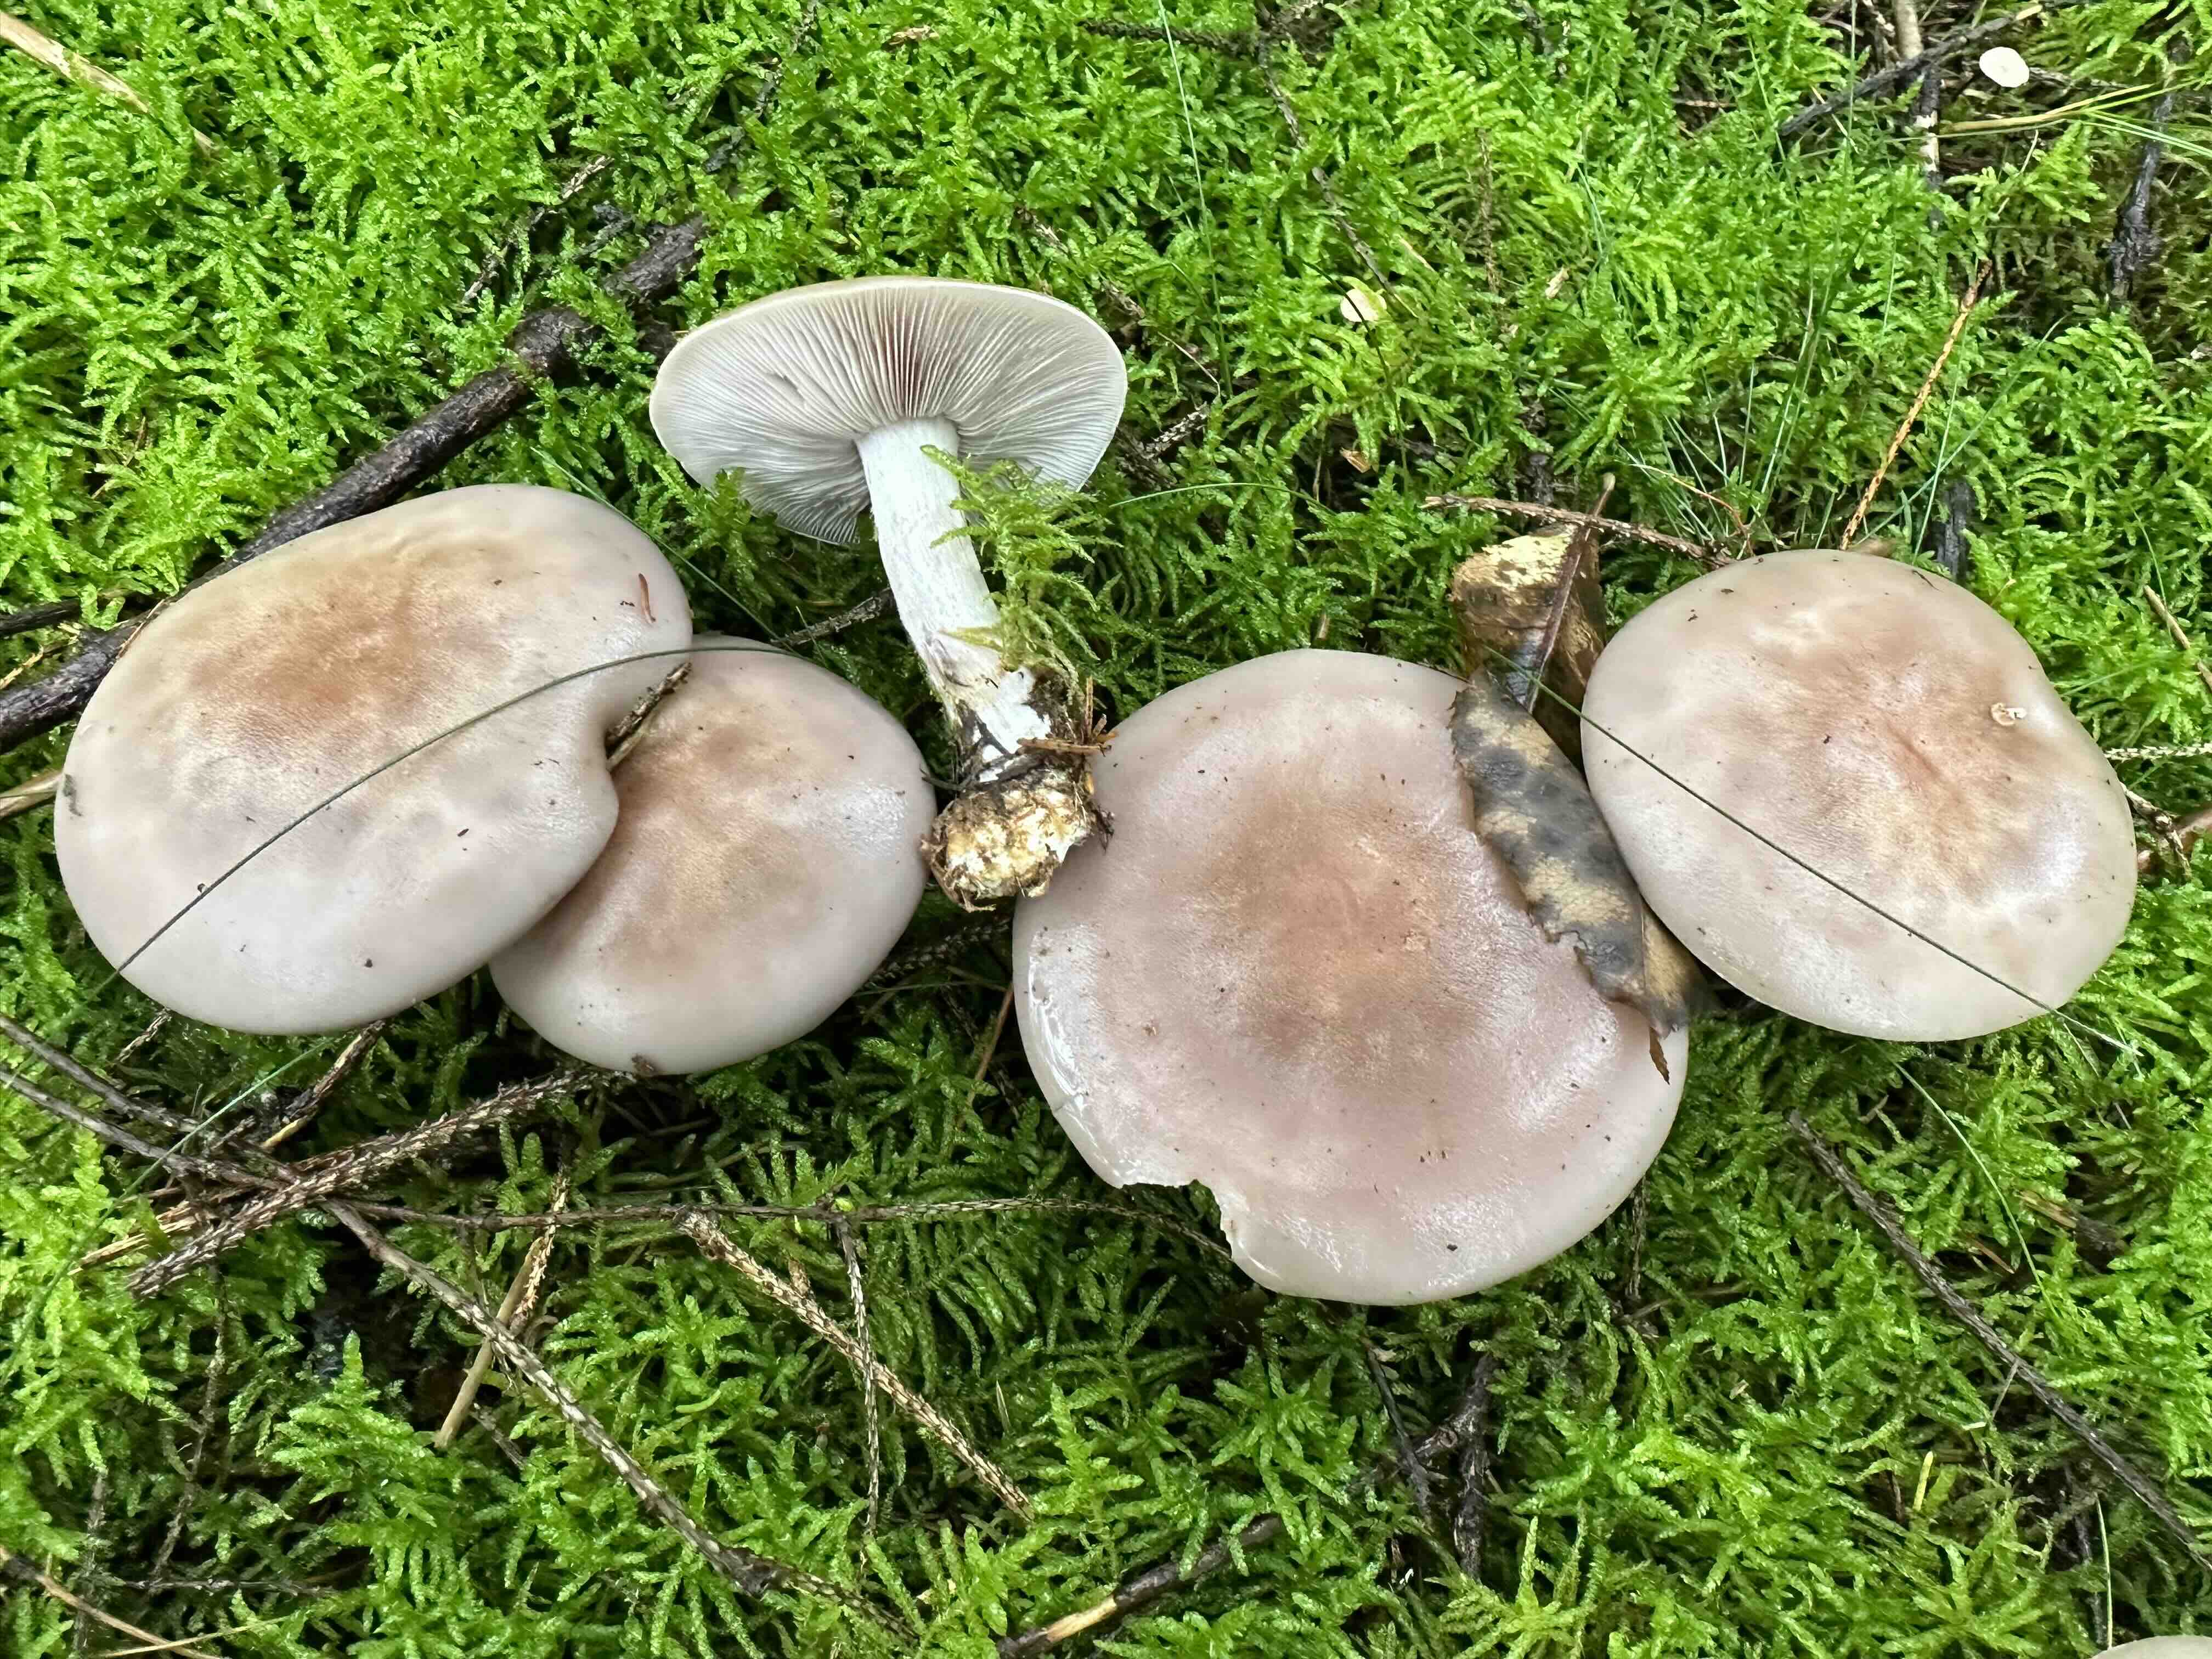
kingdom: Fungi
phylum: Basidiomycota
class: Agaricomycetes
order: Agaricales
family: Tricholomataceae
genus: Lepista
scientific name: Lepista nuda
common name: violet hekseringshat
